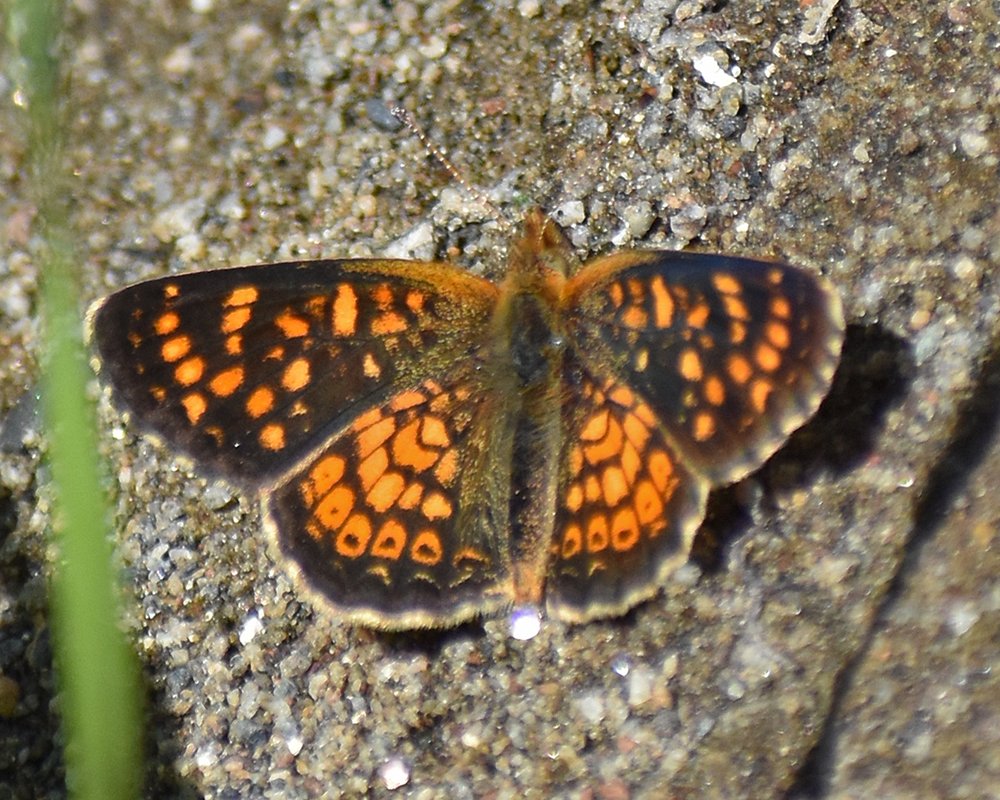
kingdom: Animalia
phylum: Arthropoda
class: Insecta
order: Lepidoptera
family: Nymphalidae
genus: Phyciodes
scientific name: Phyciodes tharos
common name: Field Crescent
